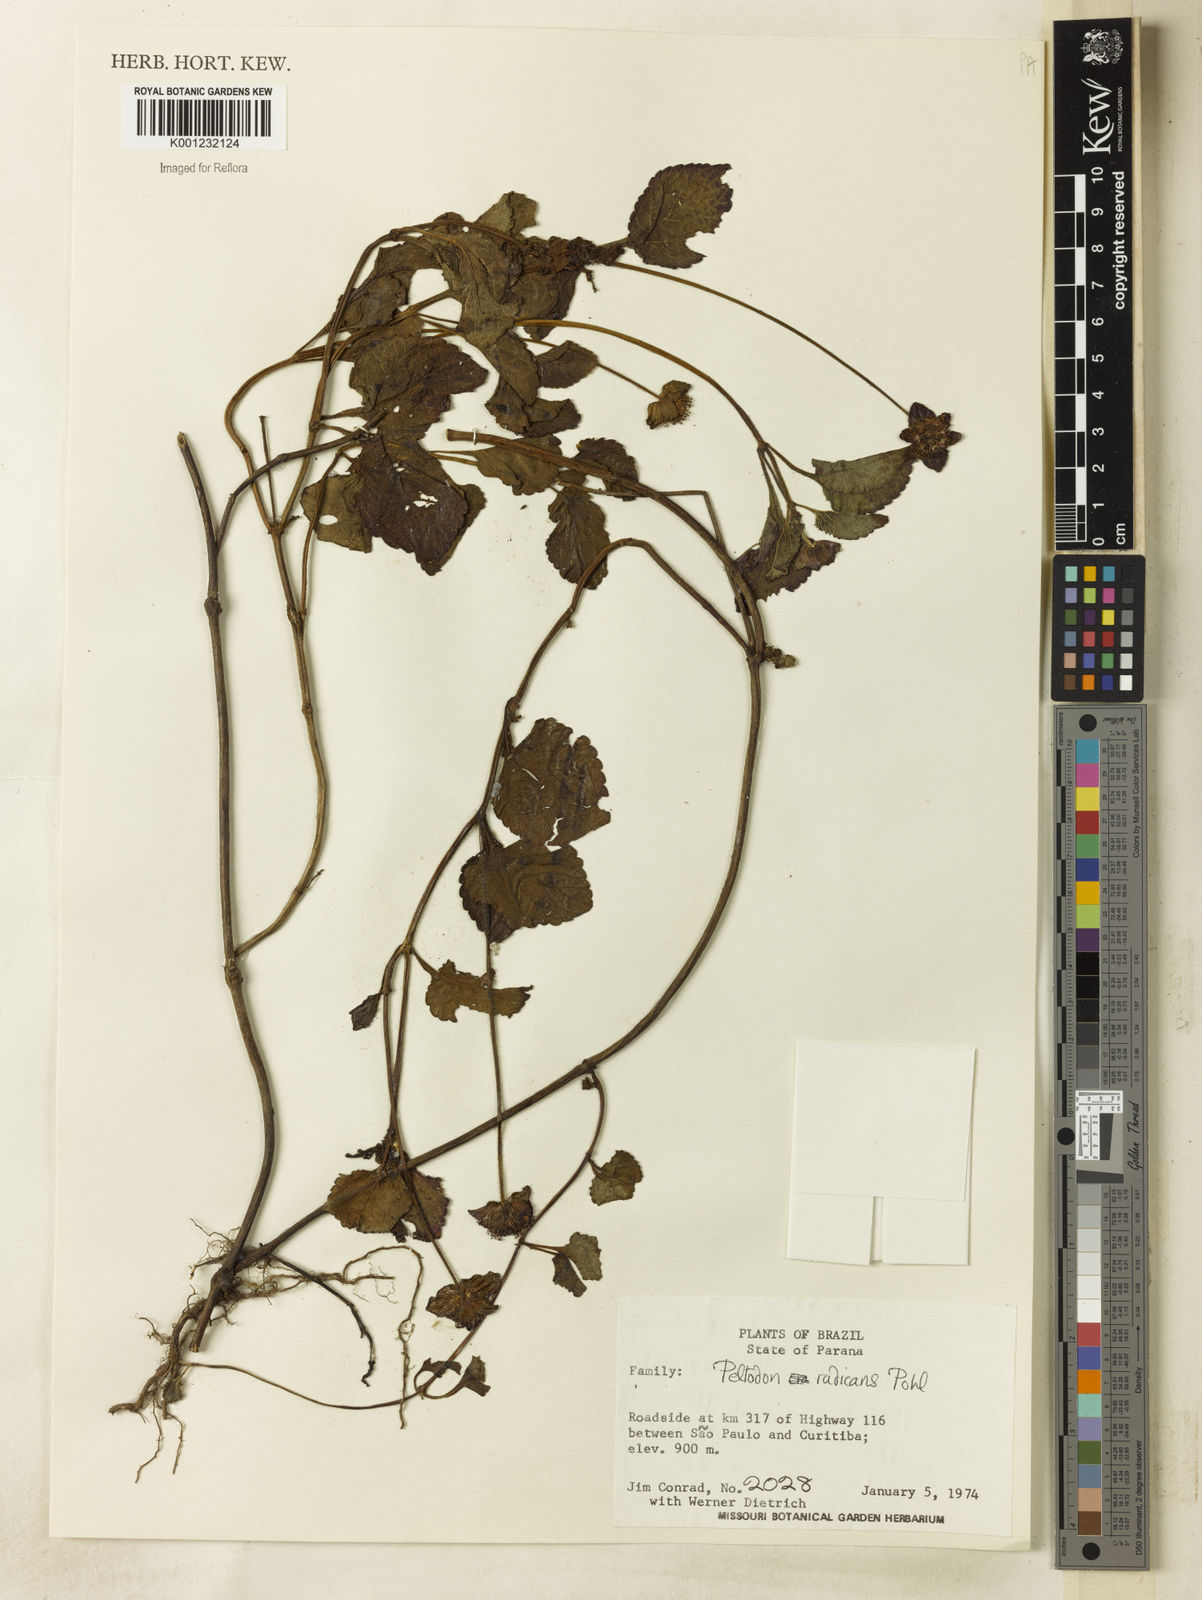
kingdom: Plantae
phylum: Tracheophyta
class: Magnoliopsida
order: Lamiales
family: Lamiaceae
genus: Hyptis
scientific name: Hyptis radicans
